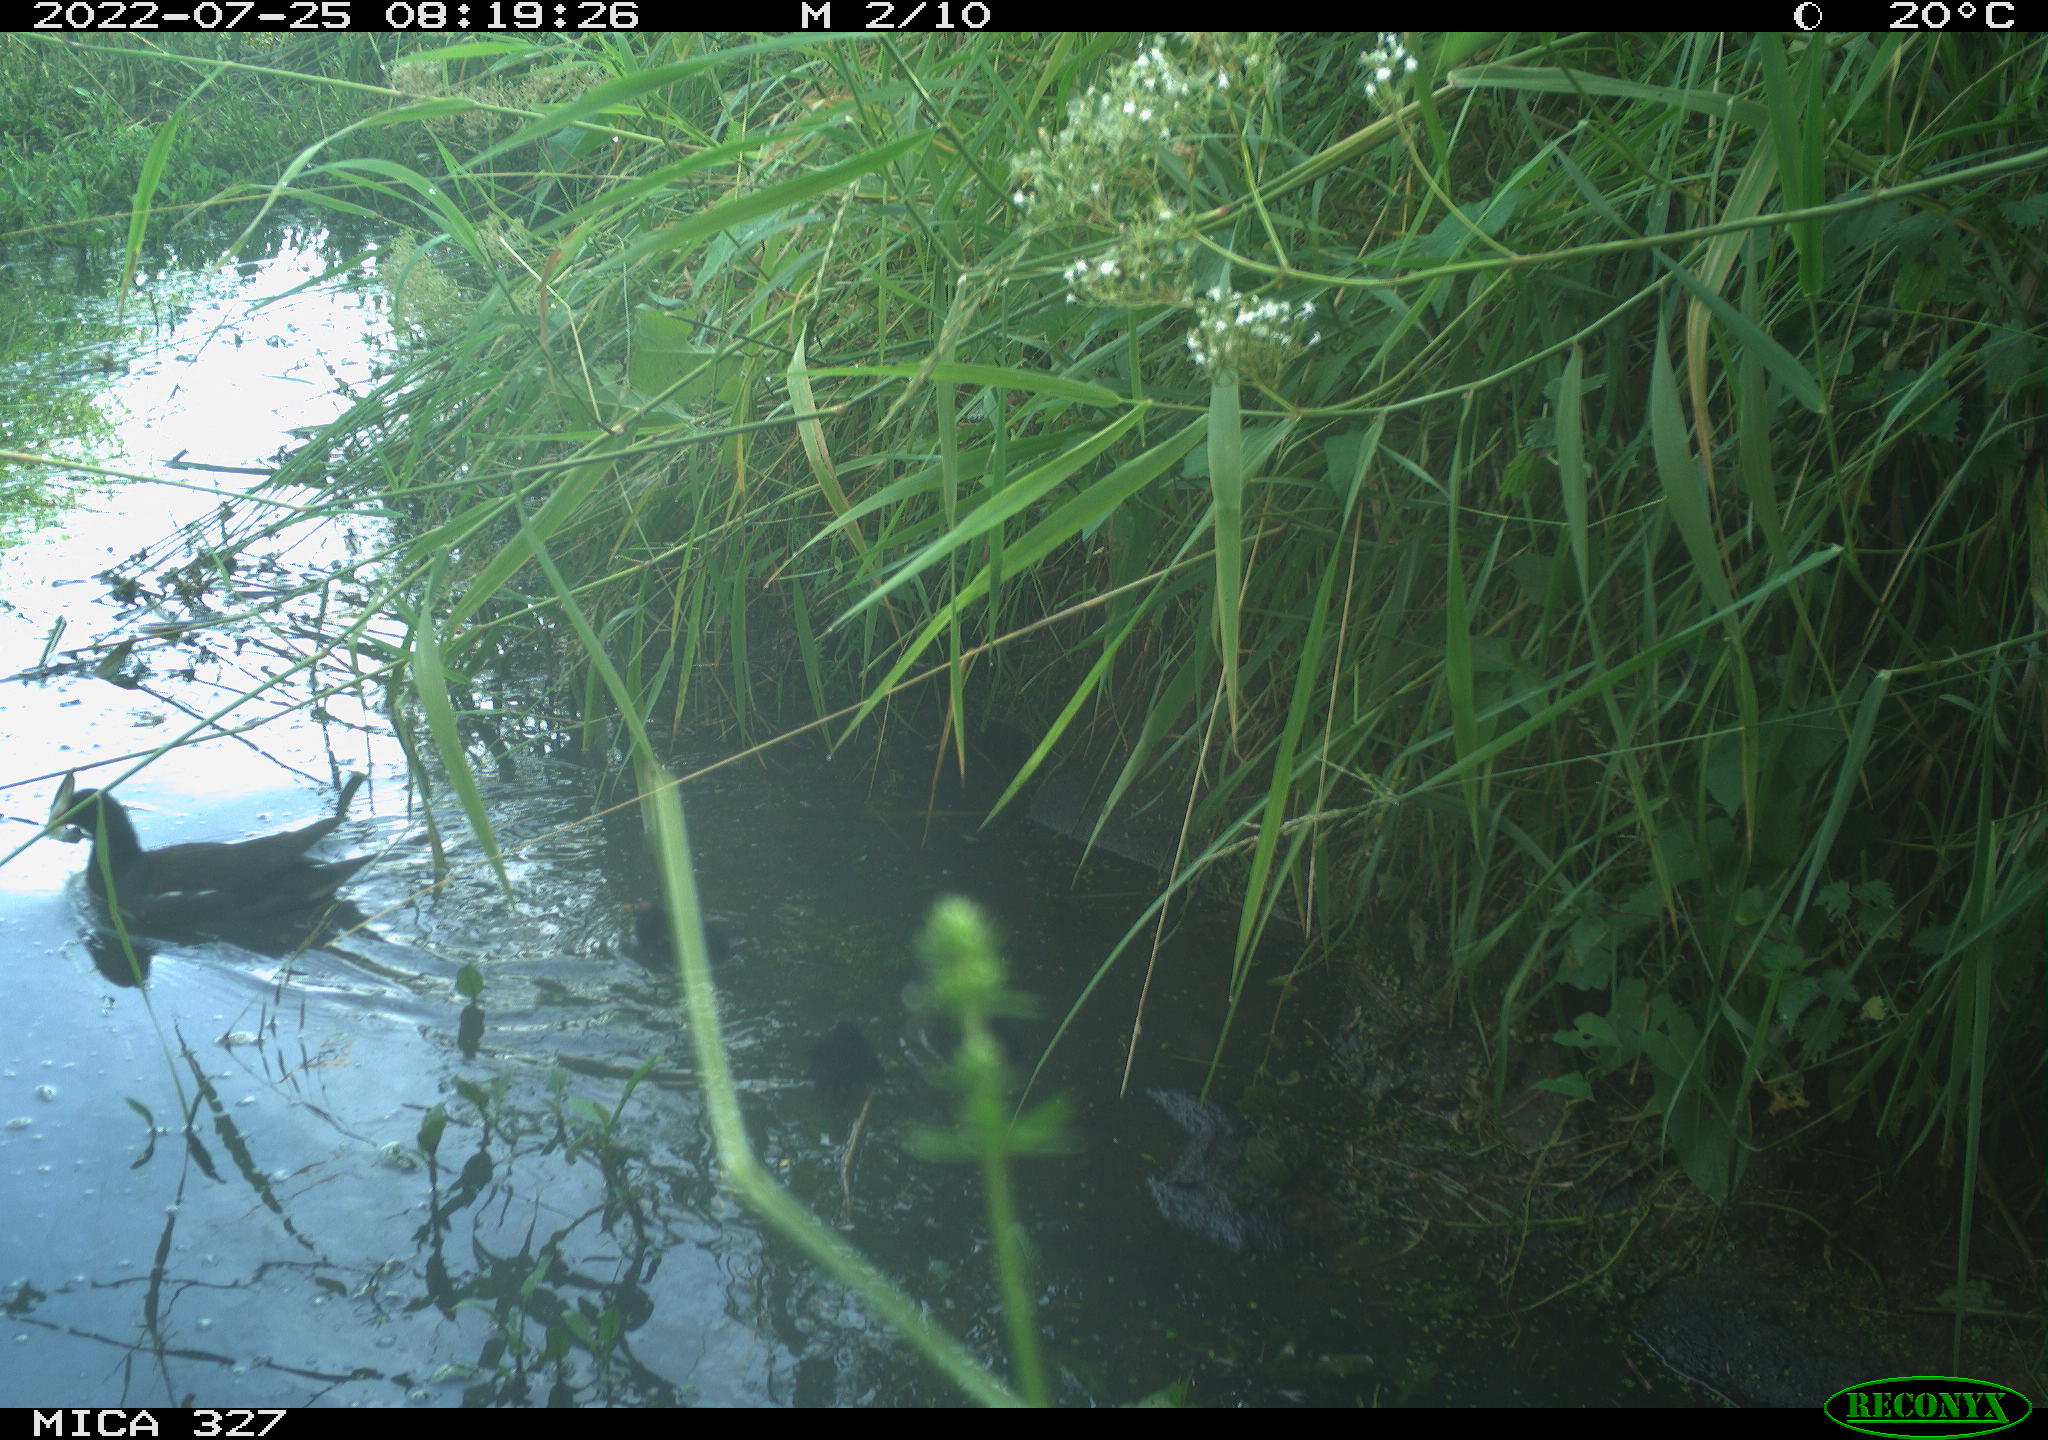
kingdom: Animalia
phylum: Chordata
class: Aves
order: Gruiformes
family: Rallidae
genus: Gallinula
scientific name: Gallinula chloropus
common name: Common moorhen
